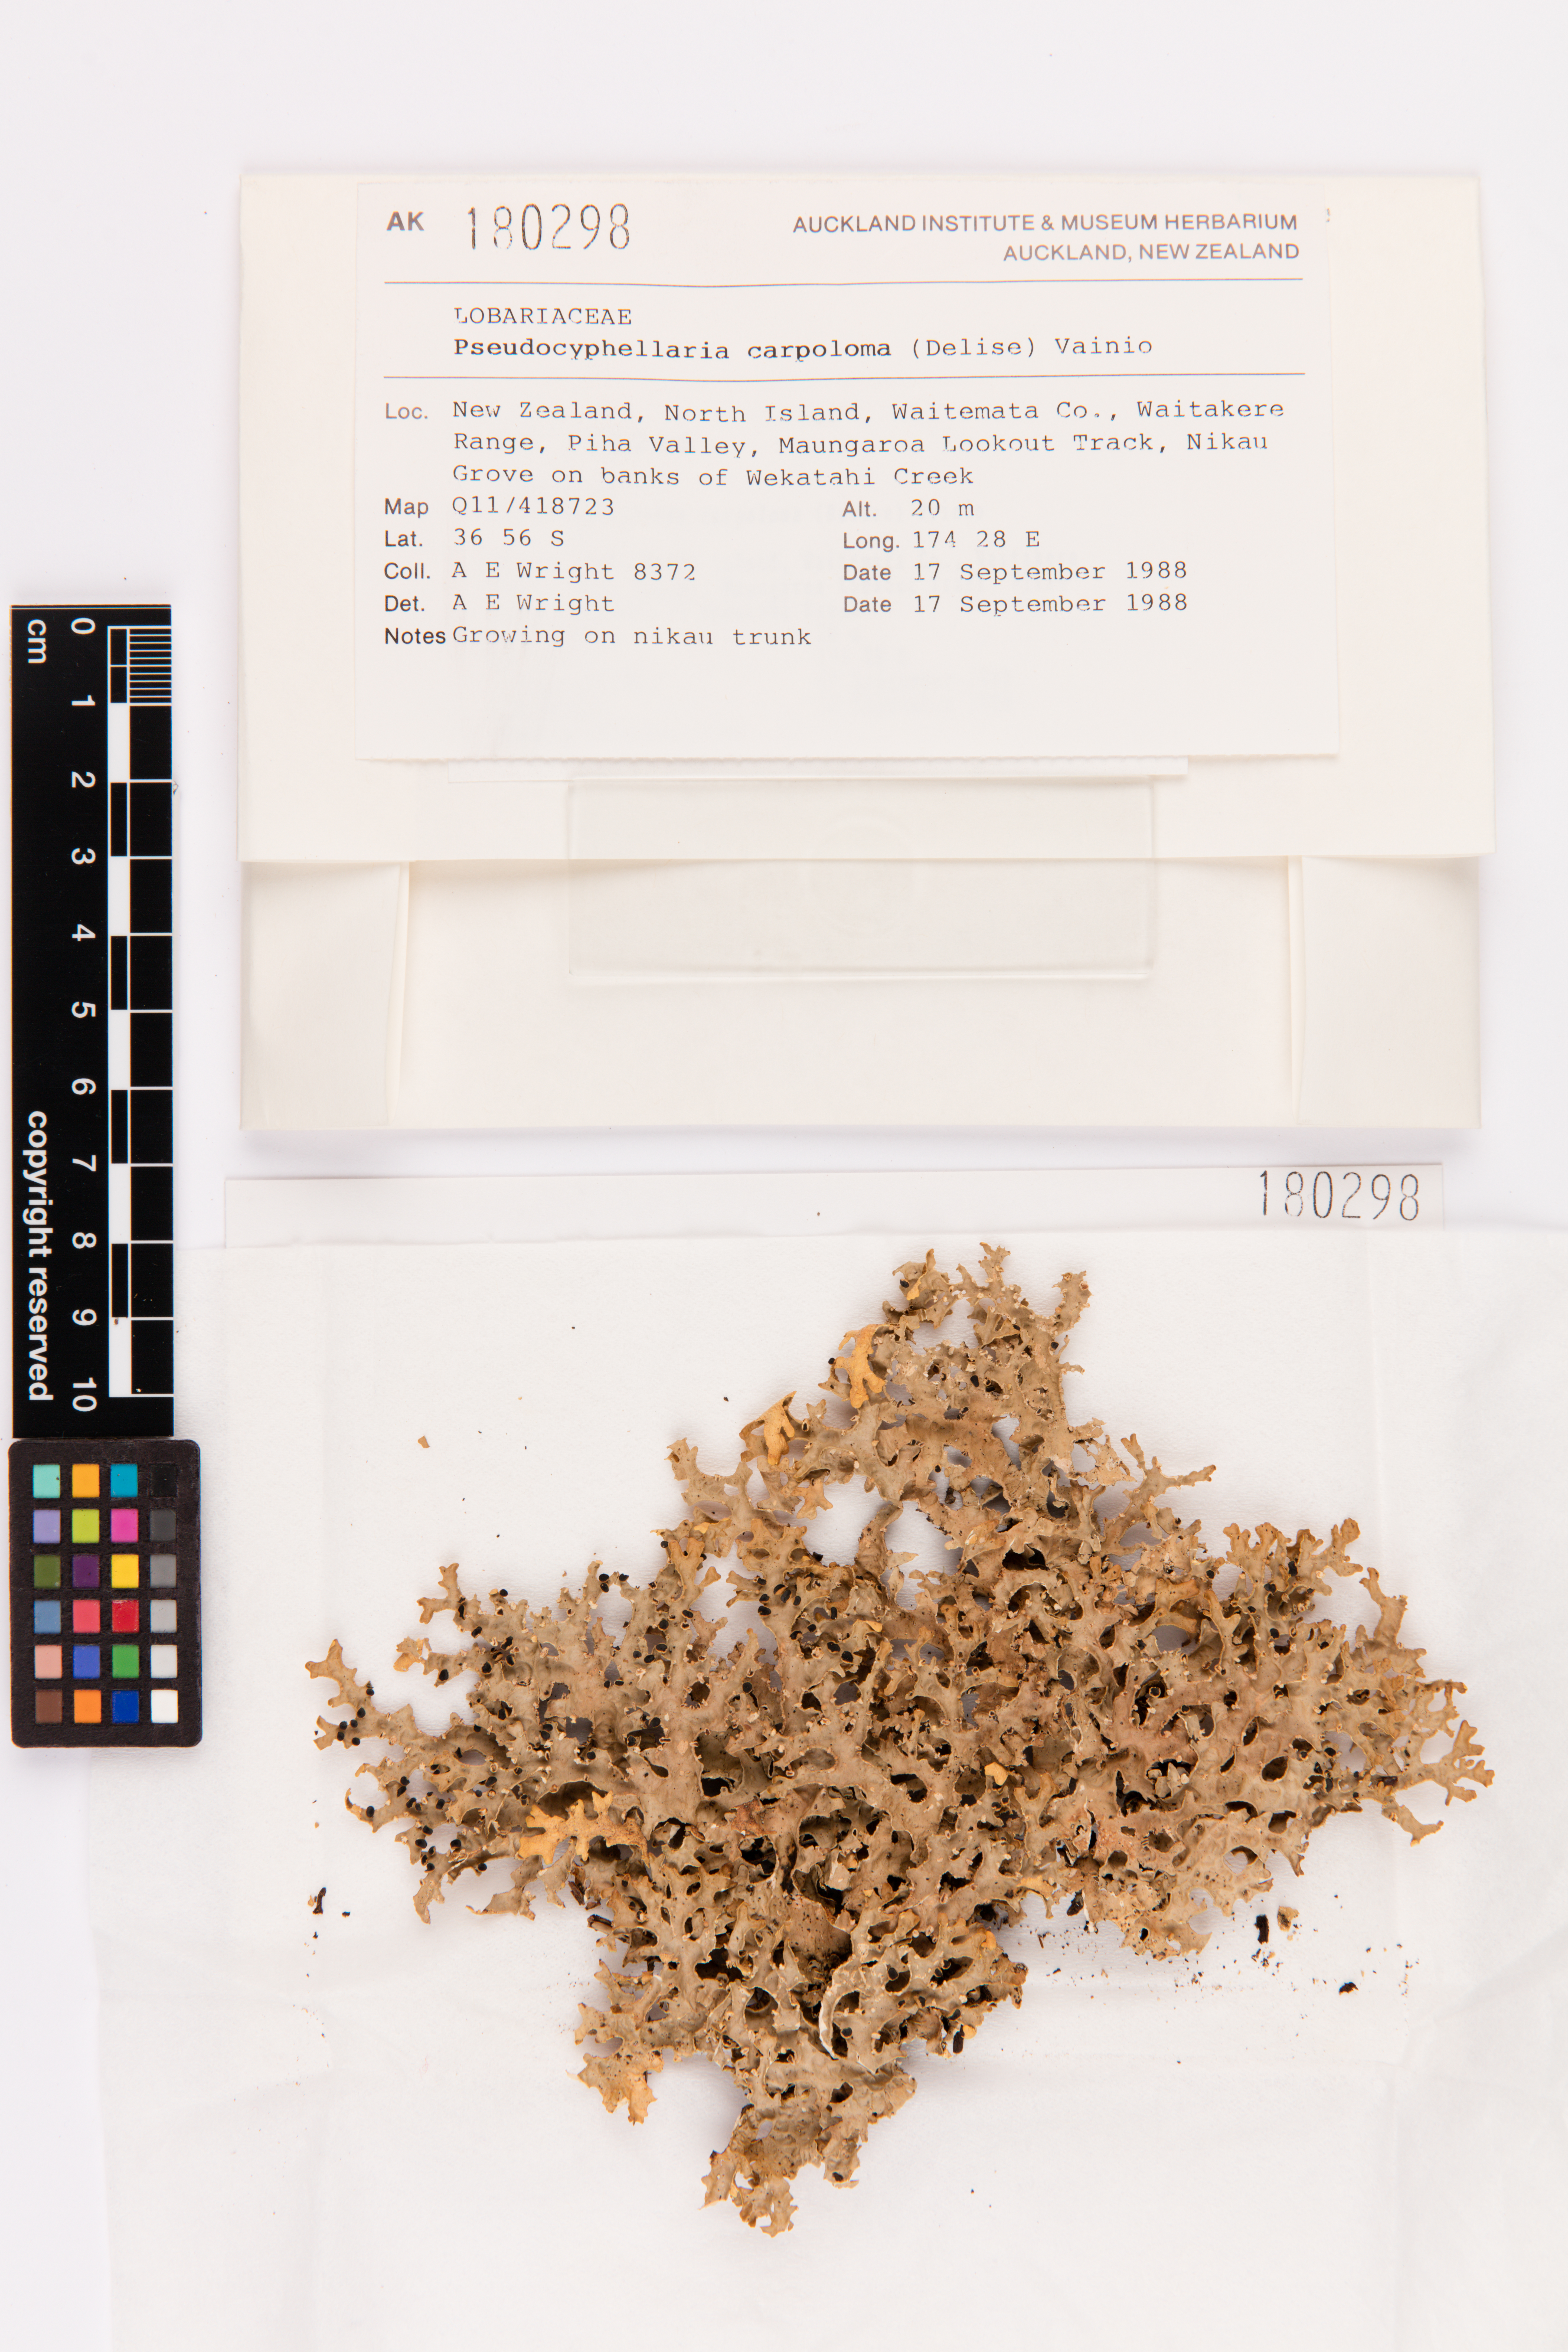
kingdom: Fungi
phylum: Ascomycota
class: Lecanoromycetes
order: Peltigerales
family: Lobariaceae
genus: Pseudocyphellaria
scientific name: Pseudocyphellaria carpoloma
